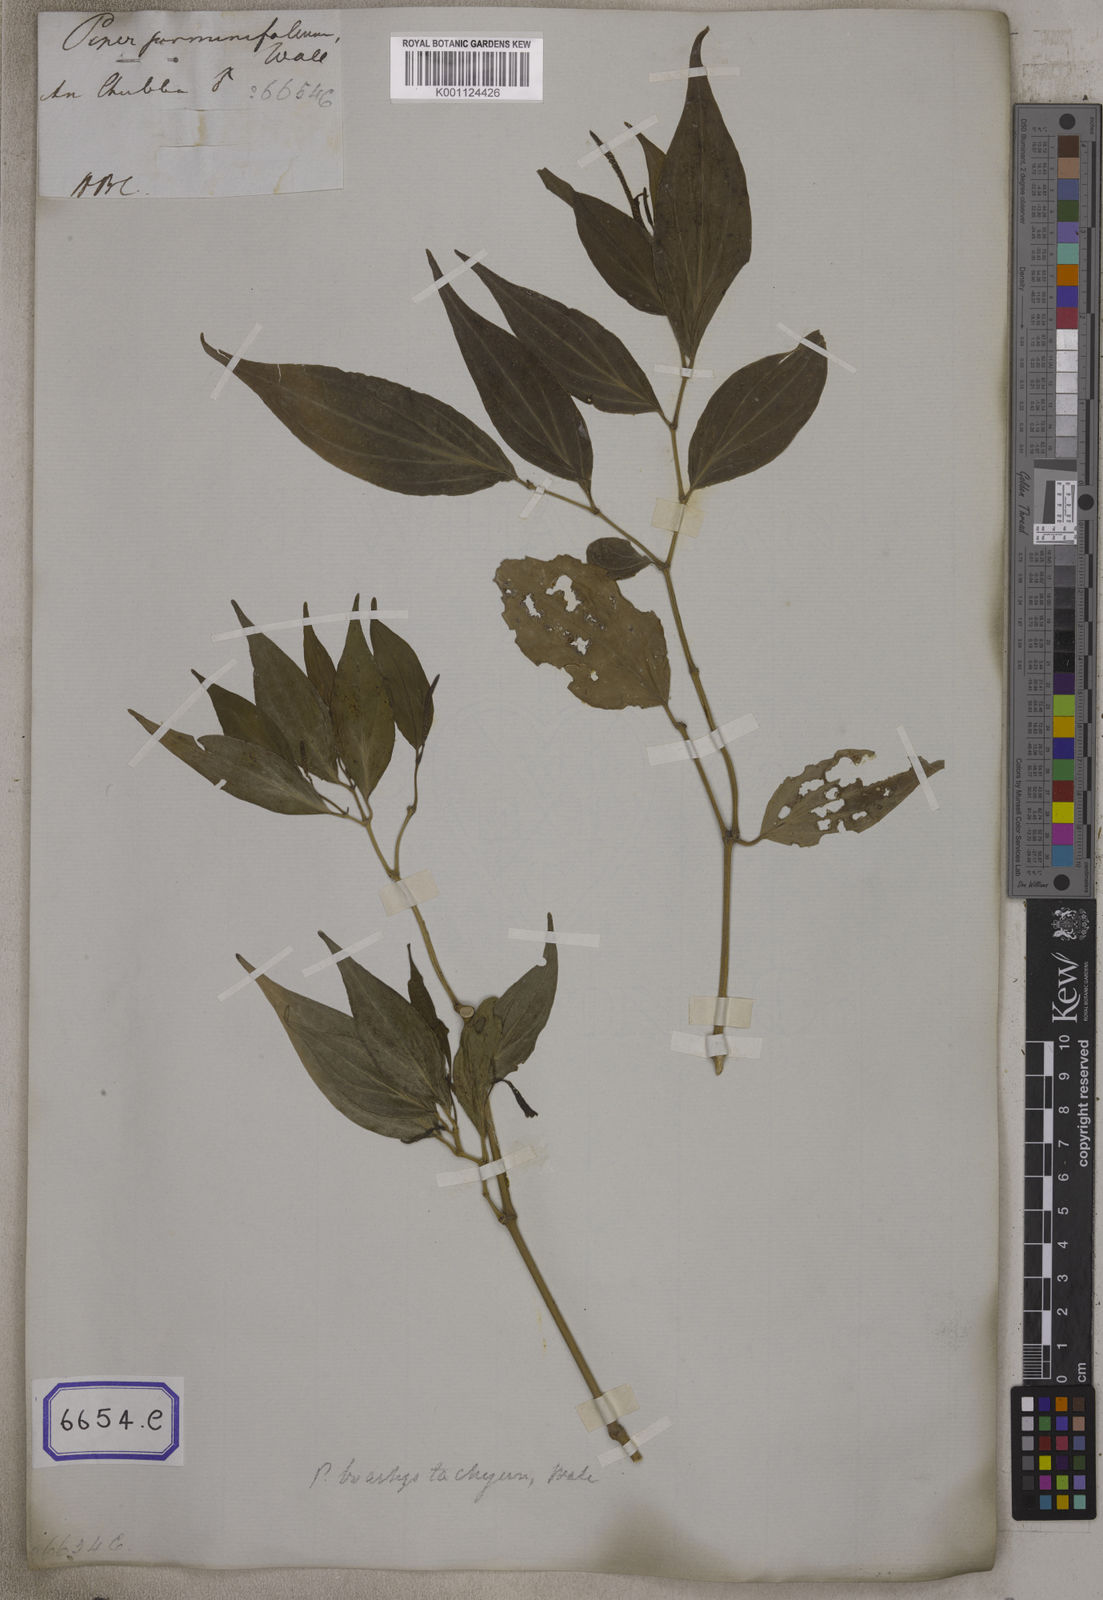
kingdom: Plantae
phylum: Tracheophyta
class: Magnoliopsida
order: Piperales
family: Piperaceae
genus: Piper
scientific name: Piper
